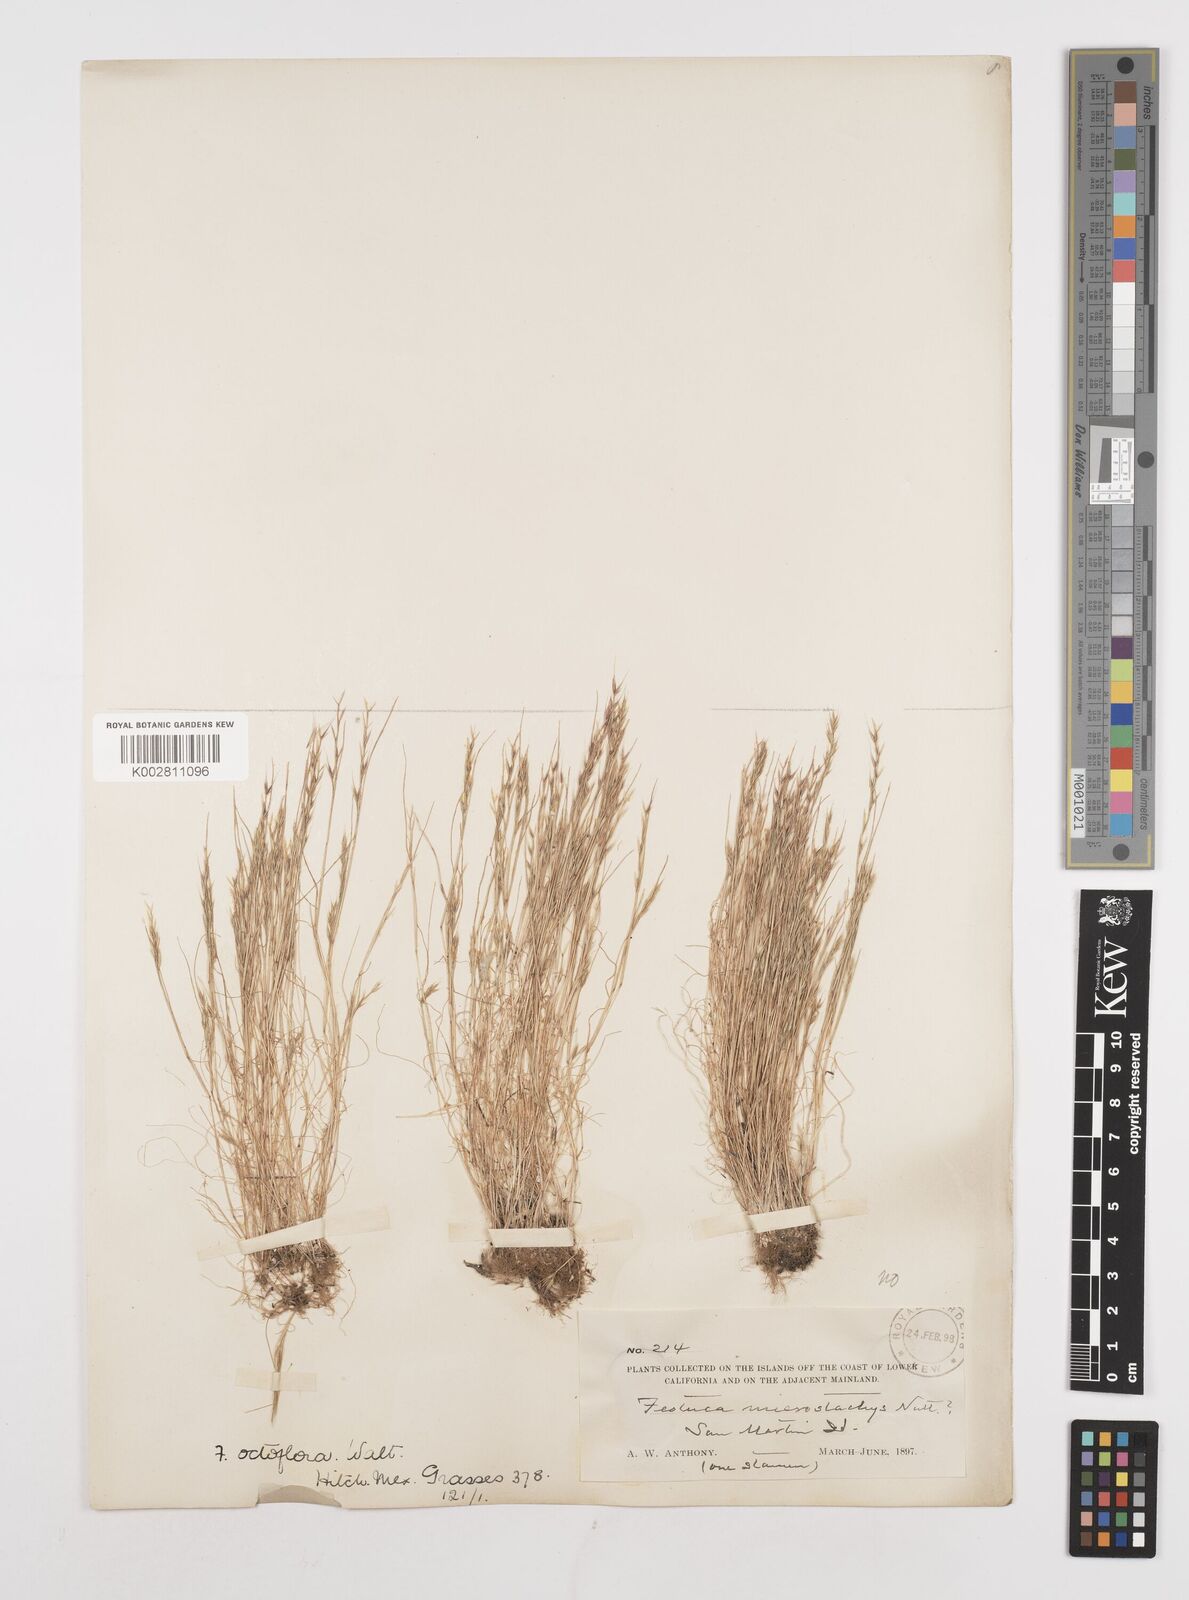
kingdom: Plantae
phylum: Tracheophyta
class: Liliopsida
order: Poales
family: Poaceae
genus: Festuca
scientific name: Festuca octoflora
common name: Sixweeks grass
